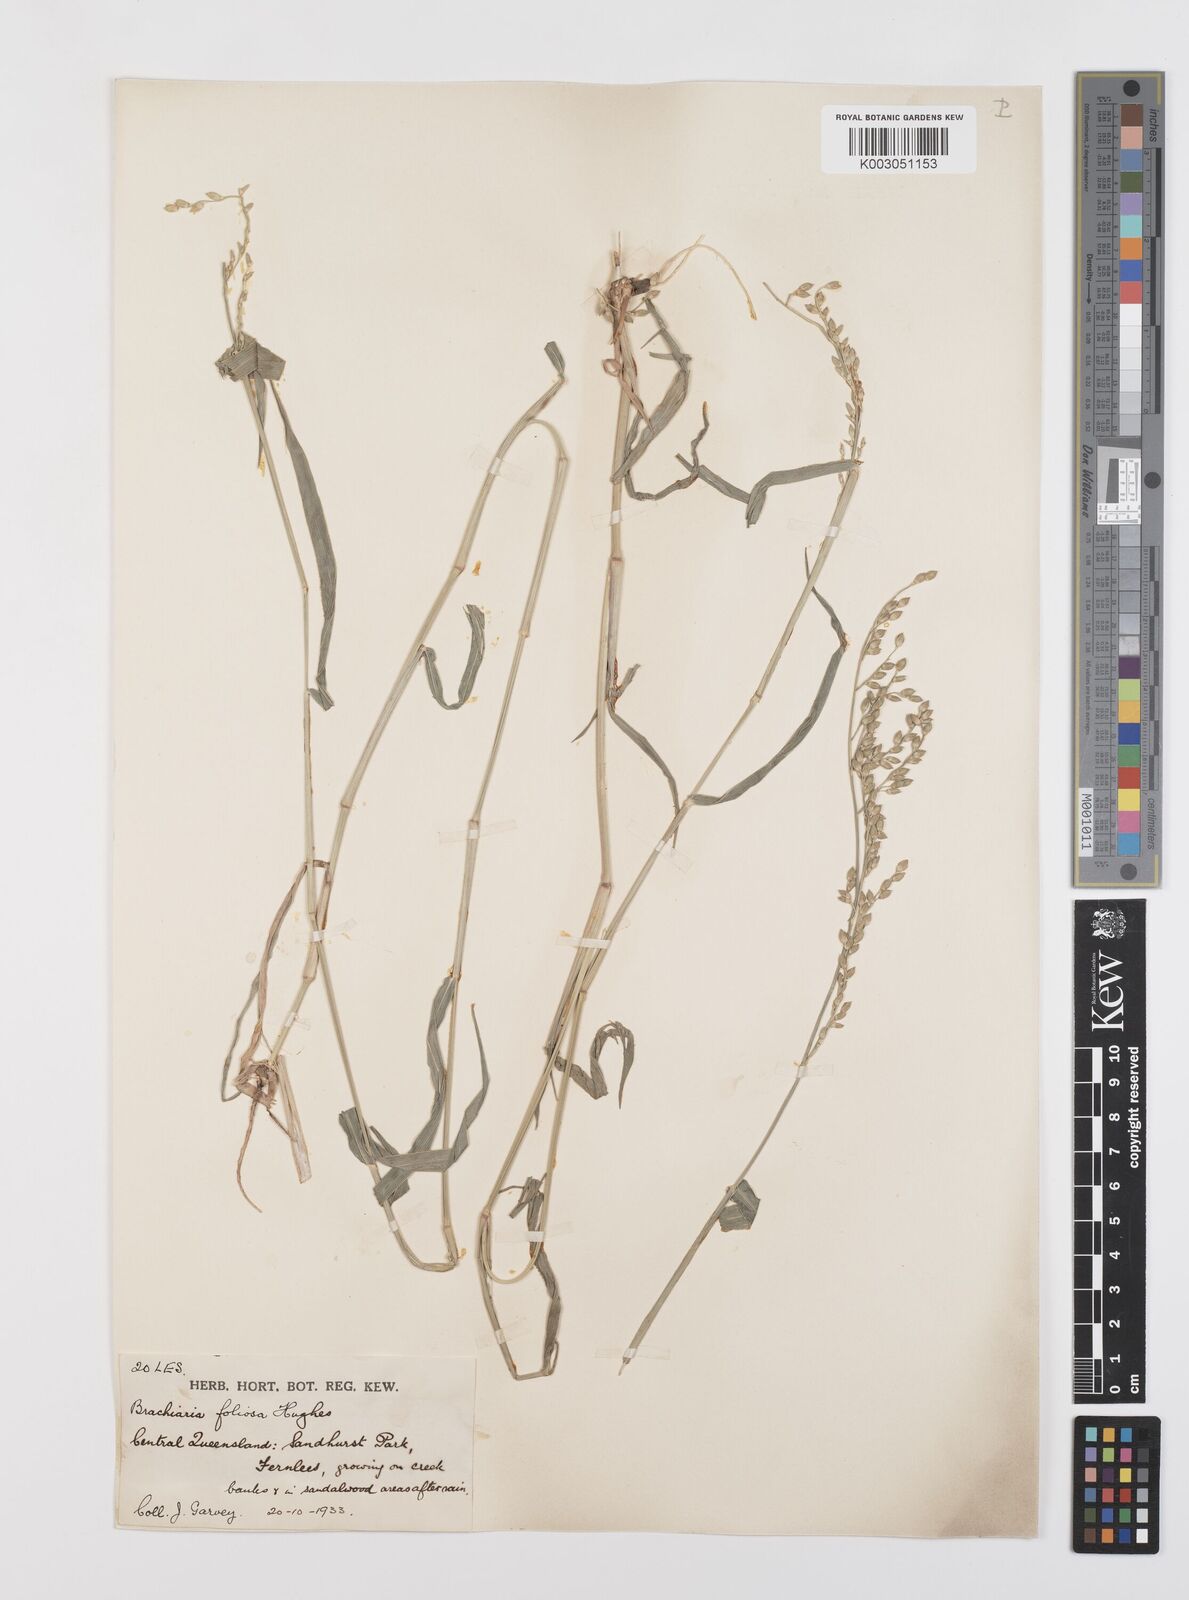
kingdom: Plantae
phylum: Tracheophyta
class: Liliopsida
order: Poales
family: Poaceae
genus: Urochloa
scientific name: Urochloa foliosa
